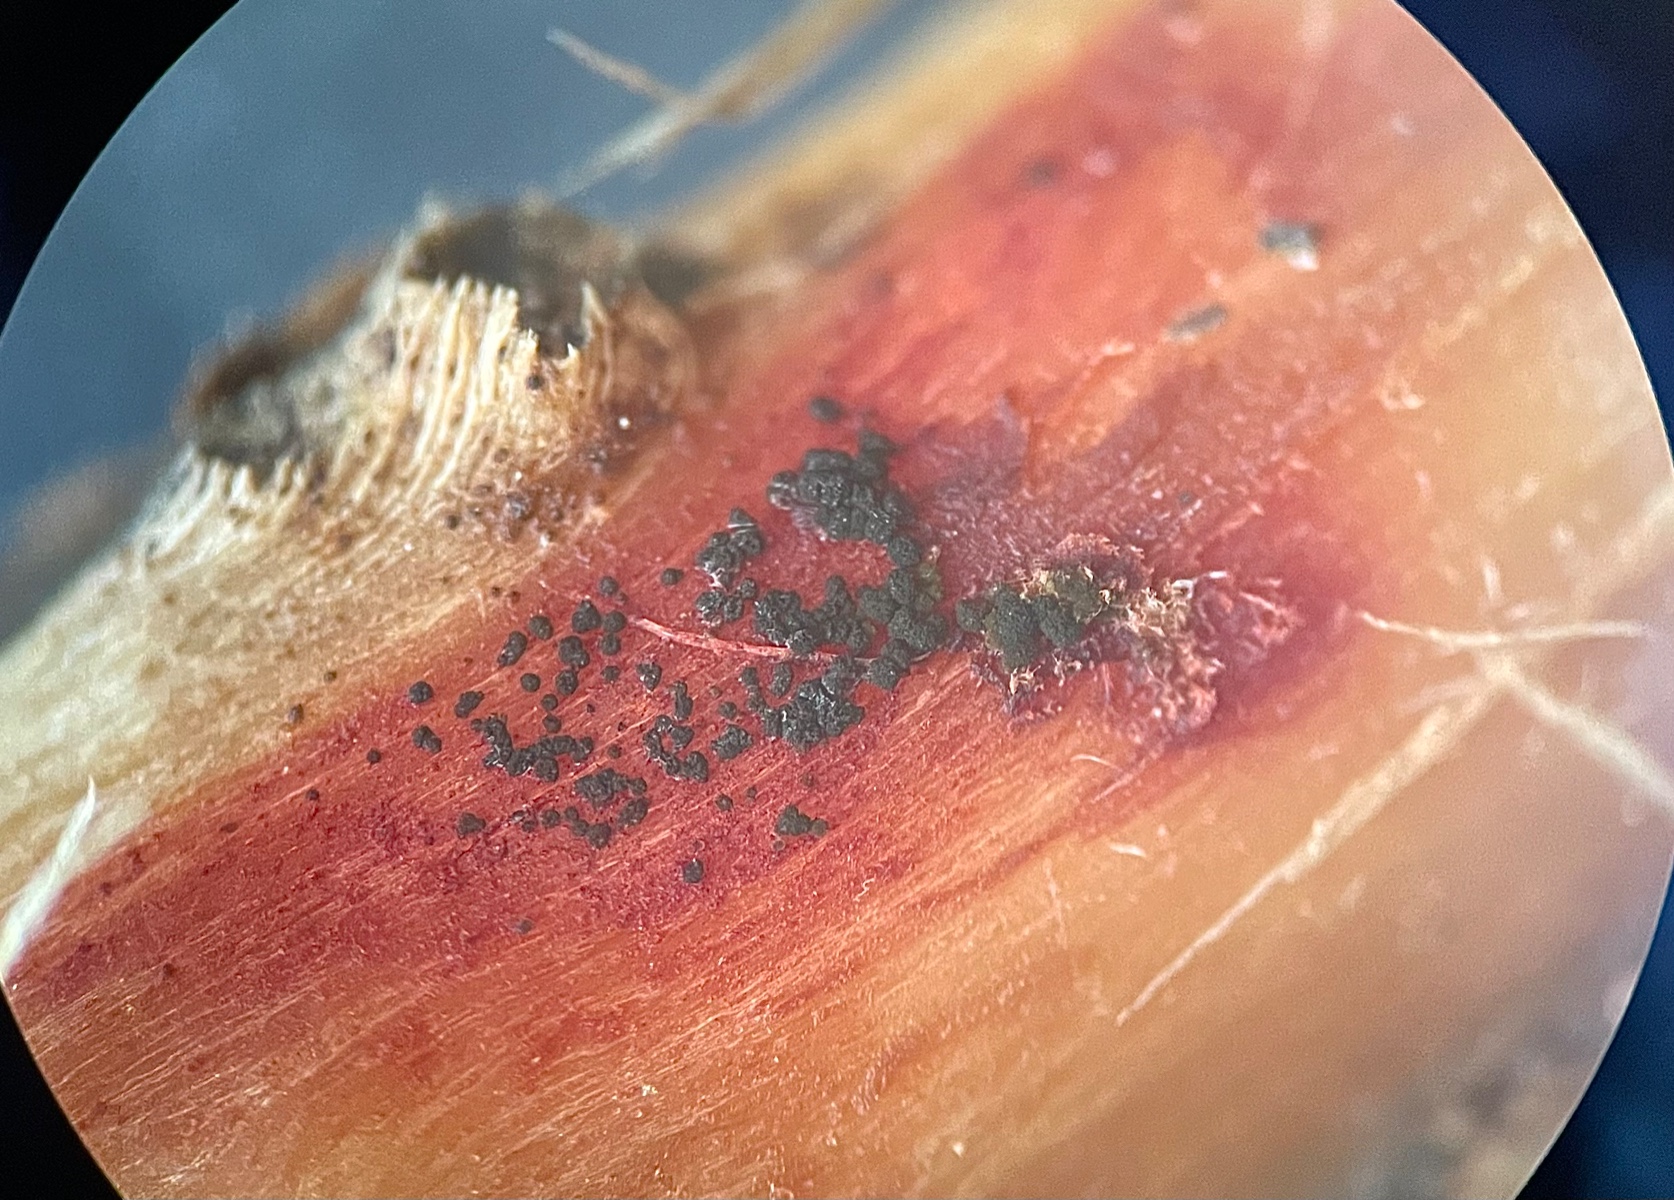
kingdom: Fungi
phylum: Ascomycota
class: Dothideomycetes
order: Pleosporales
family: Didymellaceae
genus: Epicoccum
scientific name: Epicoccum nigrum
